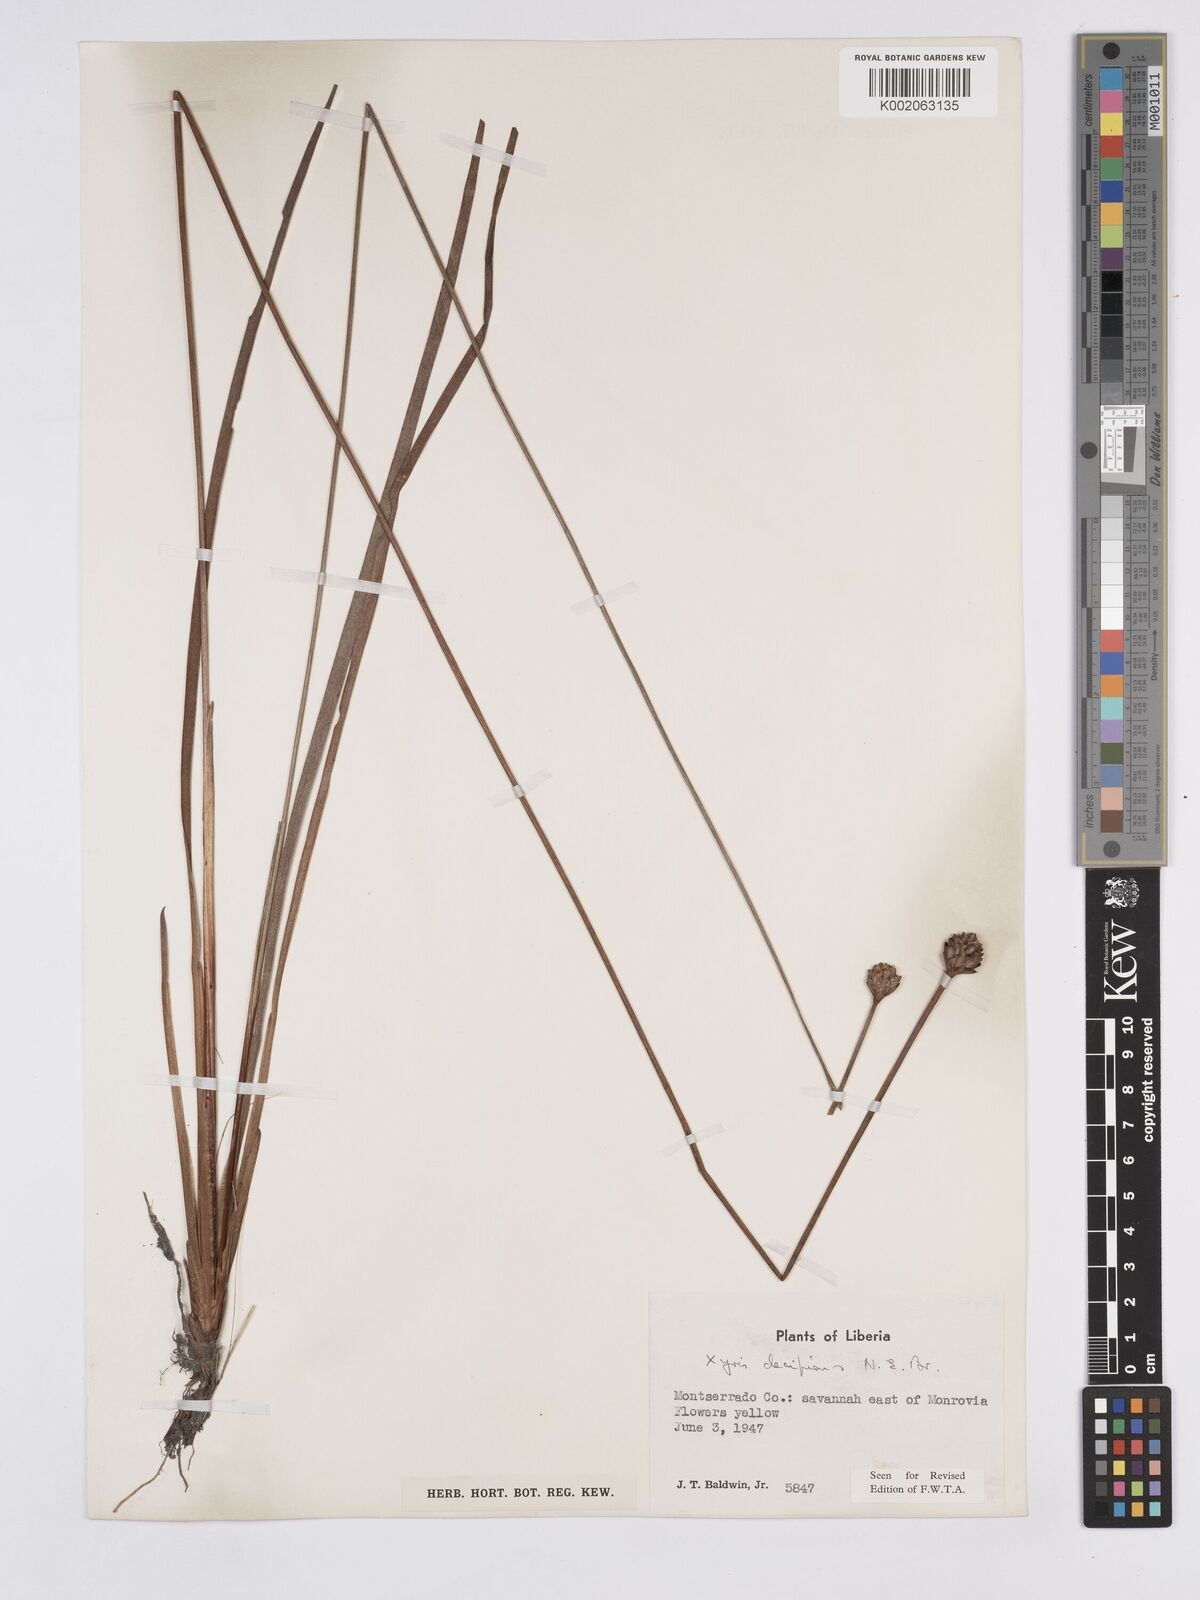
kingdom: Plantae
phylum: Tracheophyta
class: Liliopsida
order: Poales
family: Xyridaceae
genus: Xyris
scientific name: Xyris decipiens
